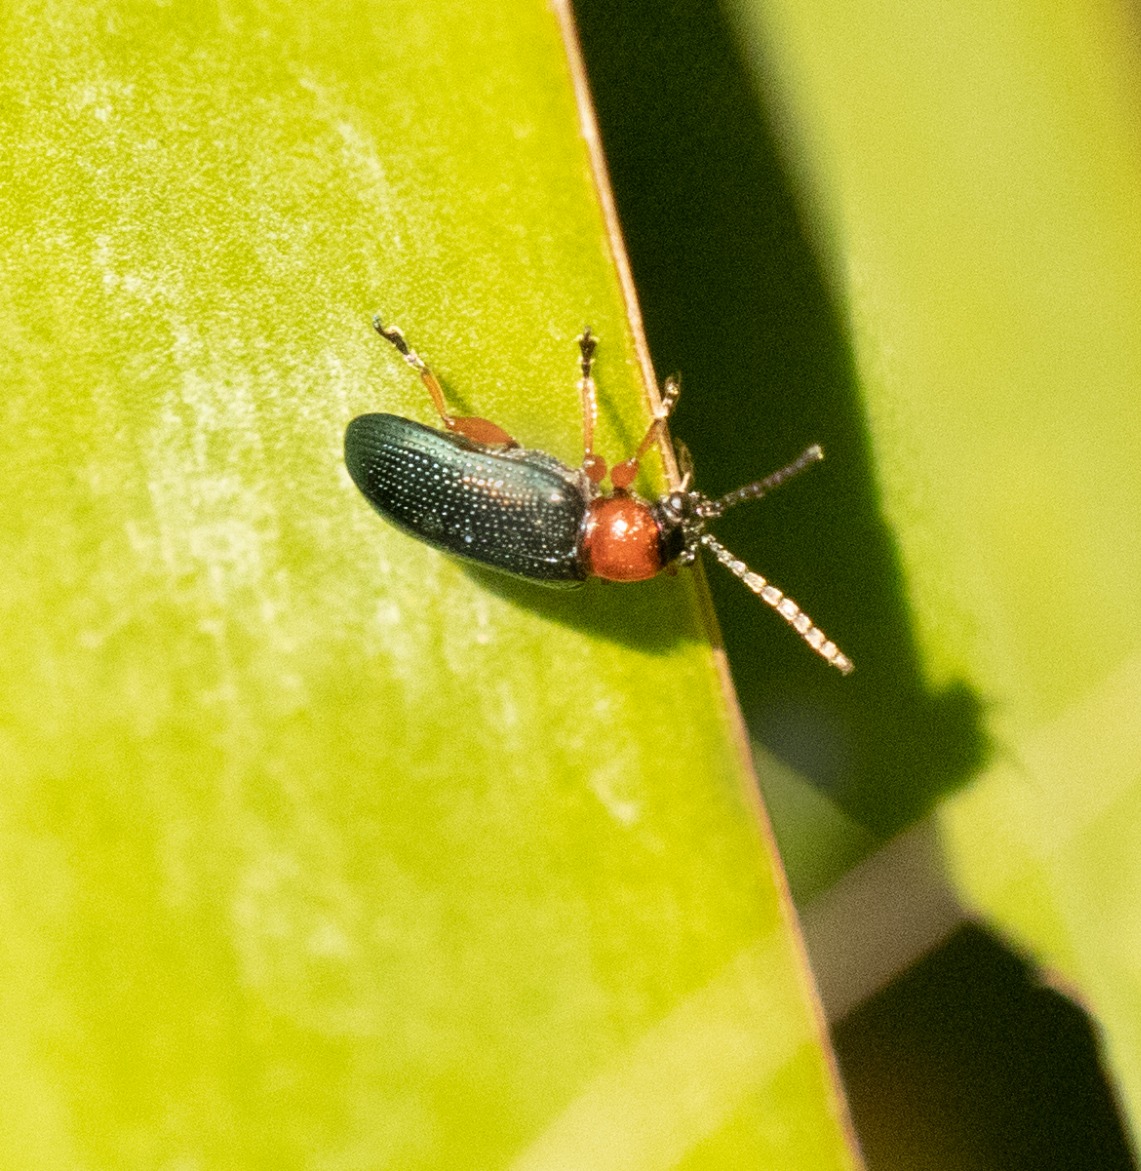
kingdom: Animalia
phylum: Arthropoda
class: Insecta
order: Coleoptera
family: Chrysomelidae
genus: Oulema
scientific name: Oulema
